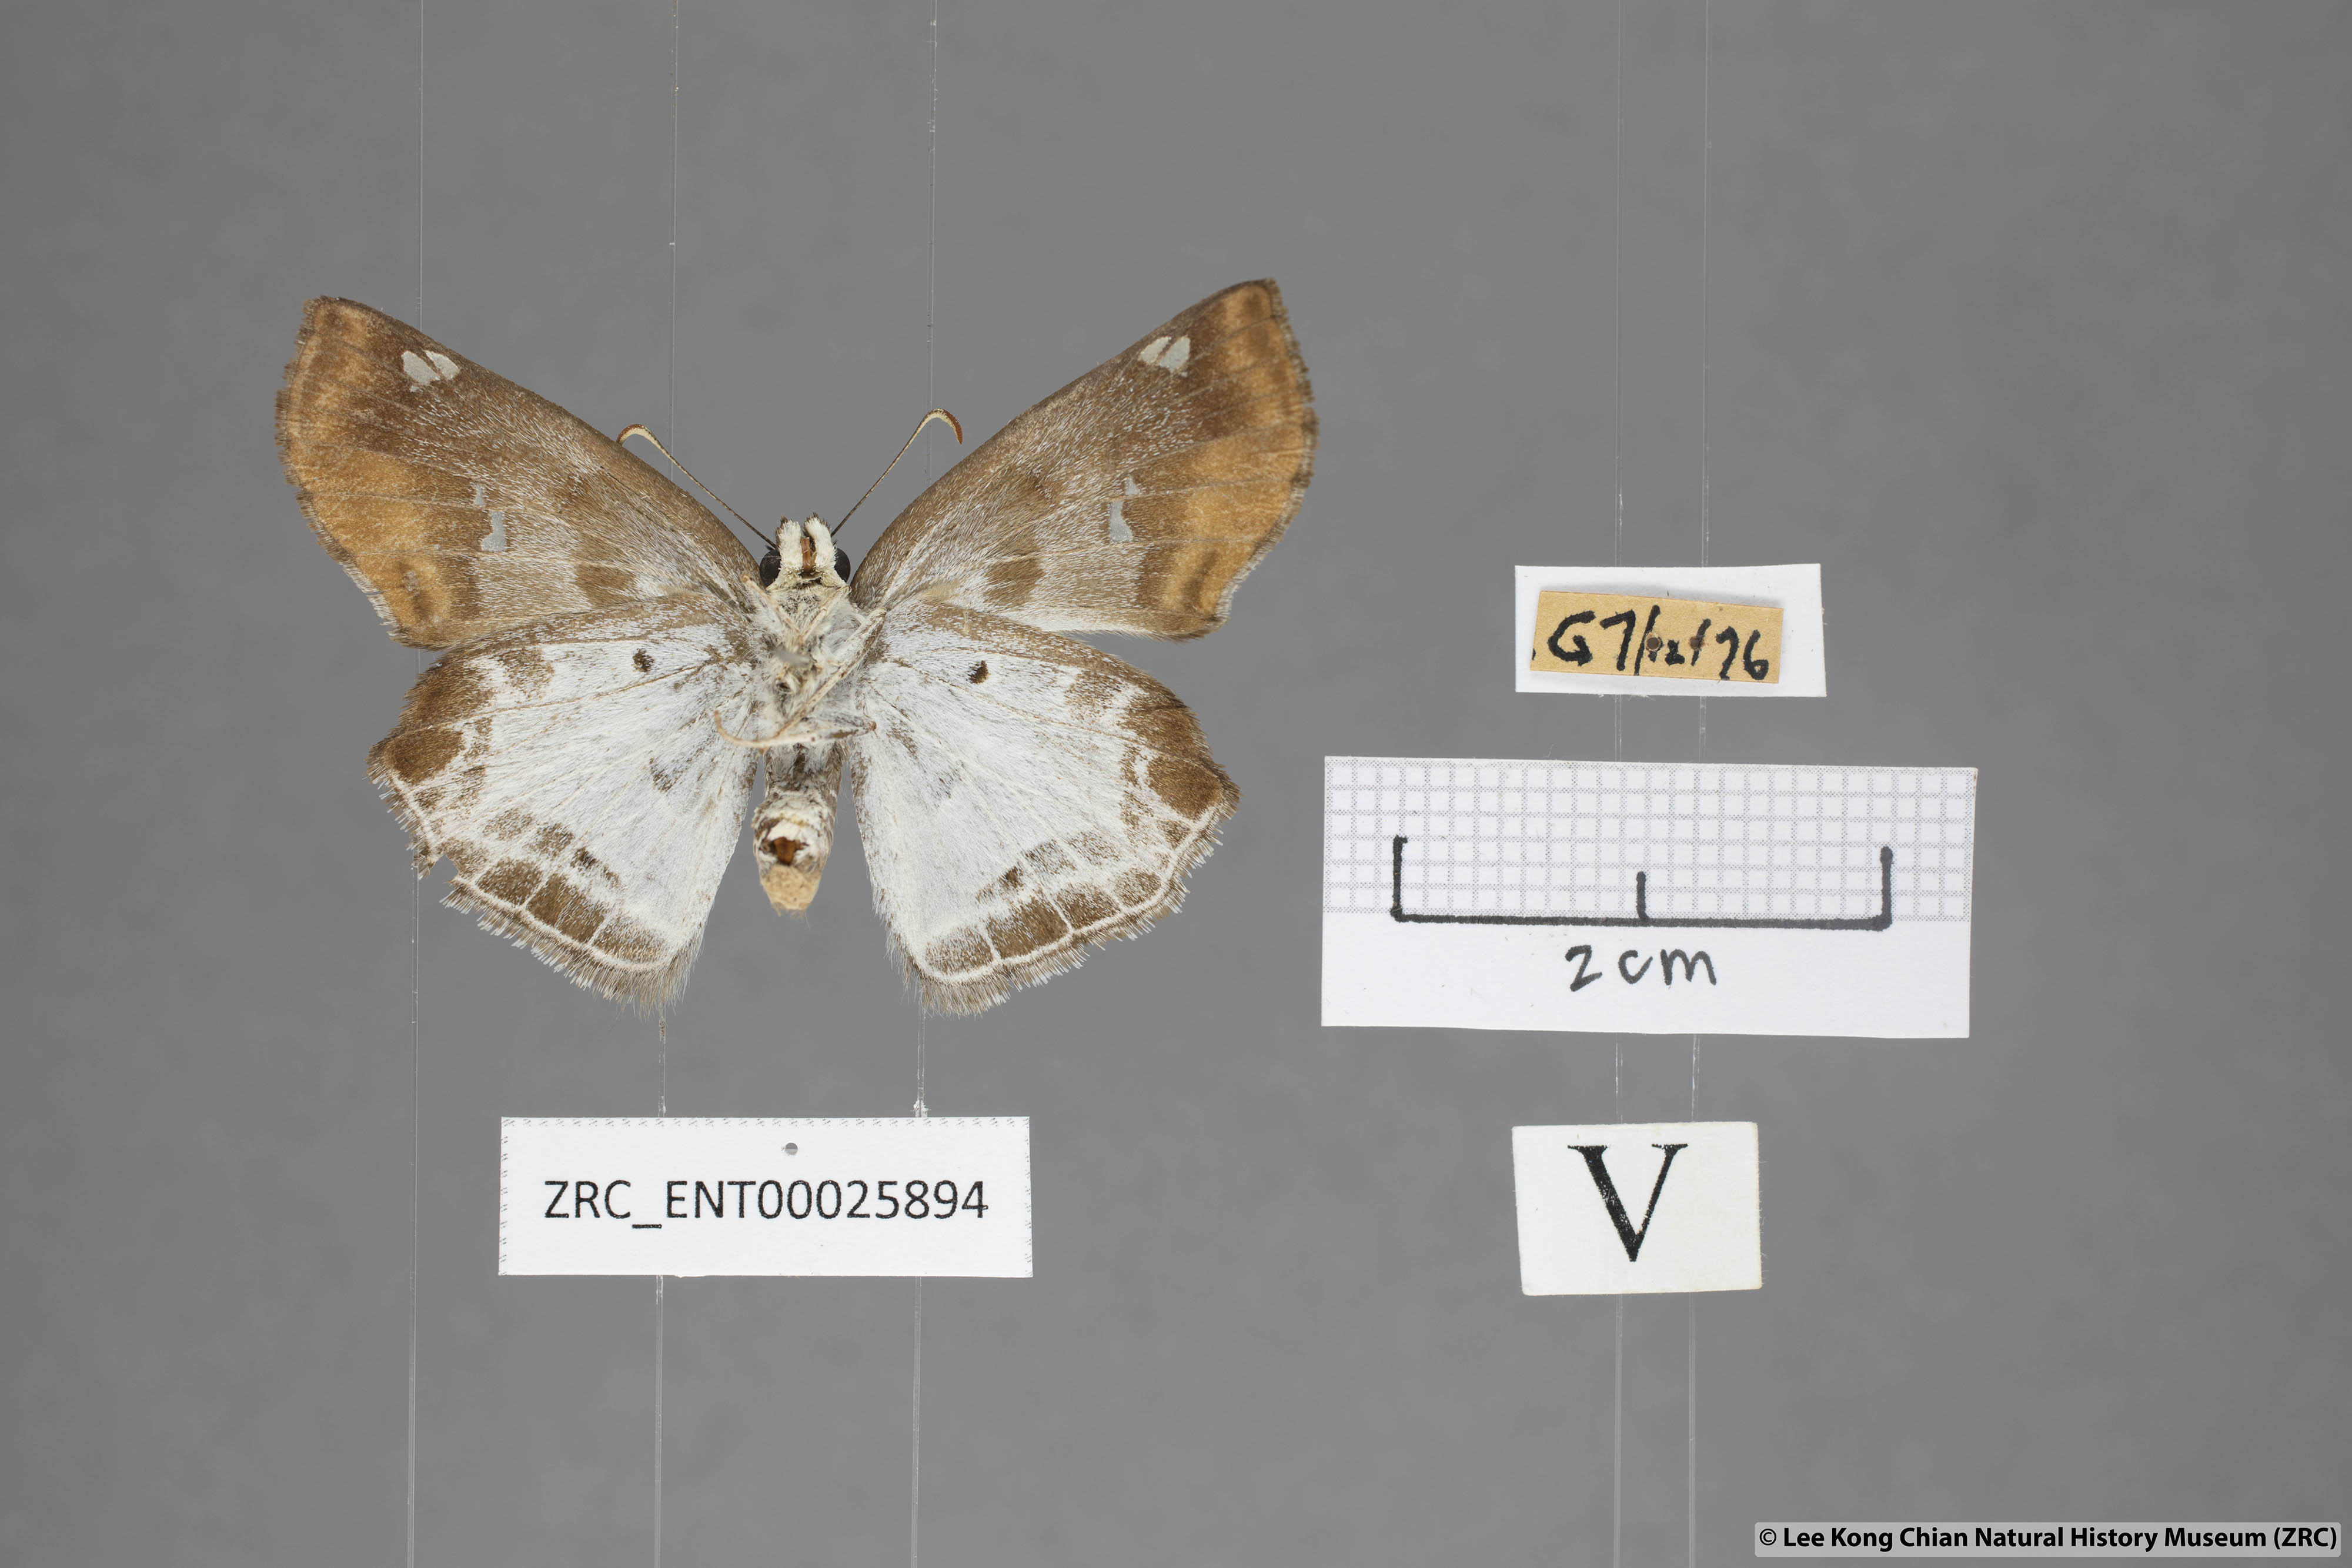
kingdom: Animalia
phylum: Arthropoda
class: Insecta
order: Lepidoptera
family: Hesperiidae
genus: Odontoptilum
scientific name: Odontoptilum angulata
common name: Chestnut banded angle
